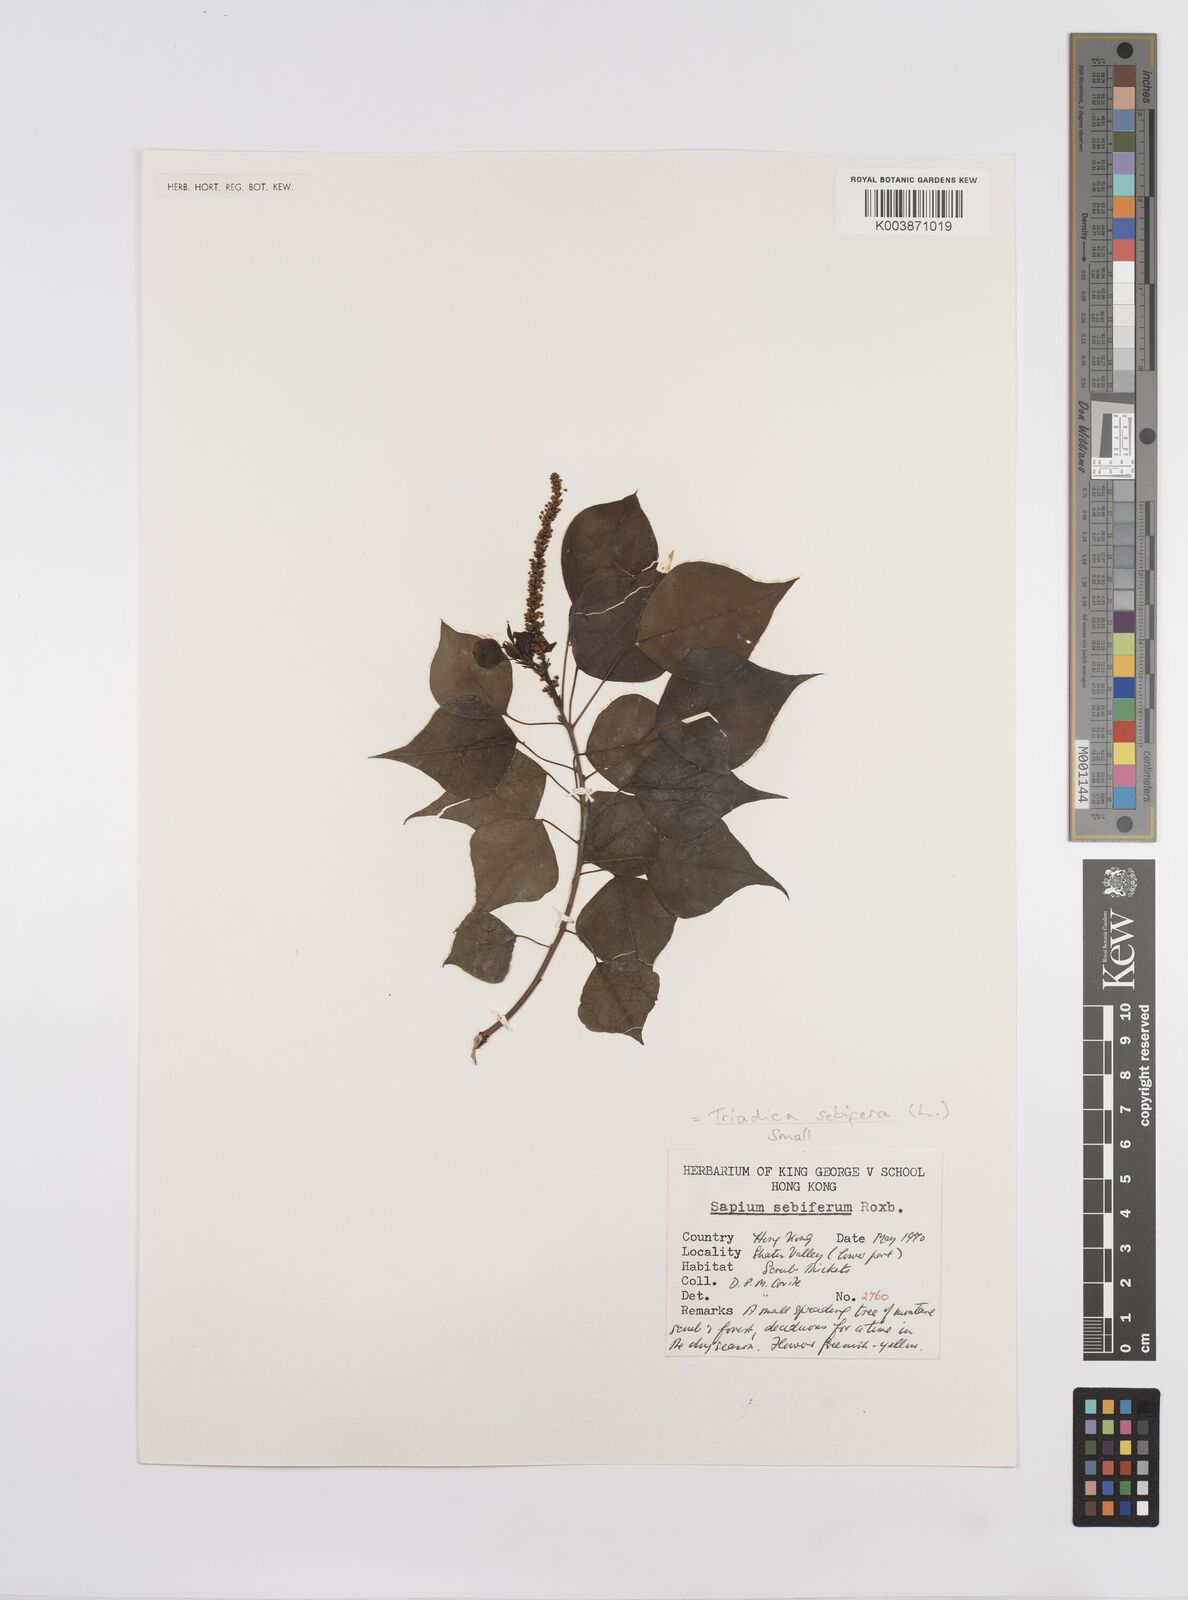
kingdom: Plantae
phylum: Tracheophyta
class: Magnoliopsida
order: Malpighiales
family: Euphorbiaceae
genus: Triadica
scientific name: Triadica sebifera
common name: Chinese tallow
